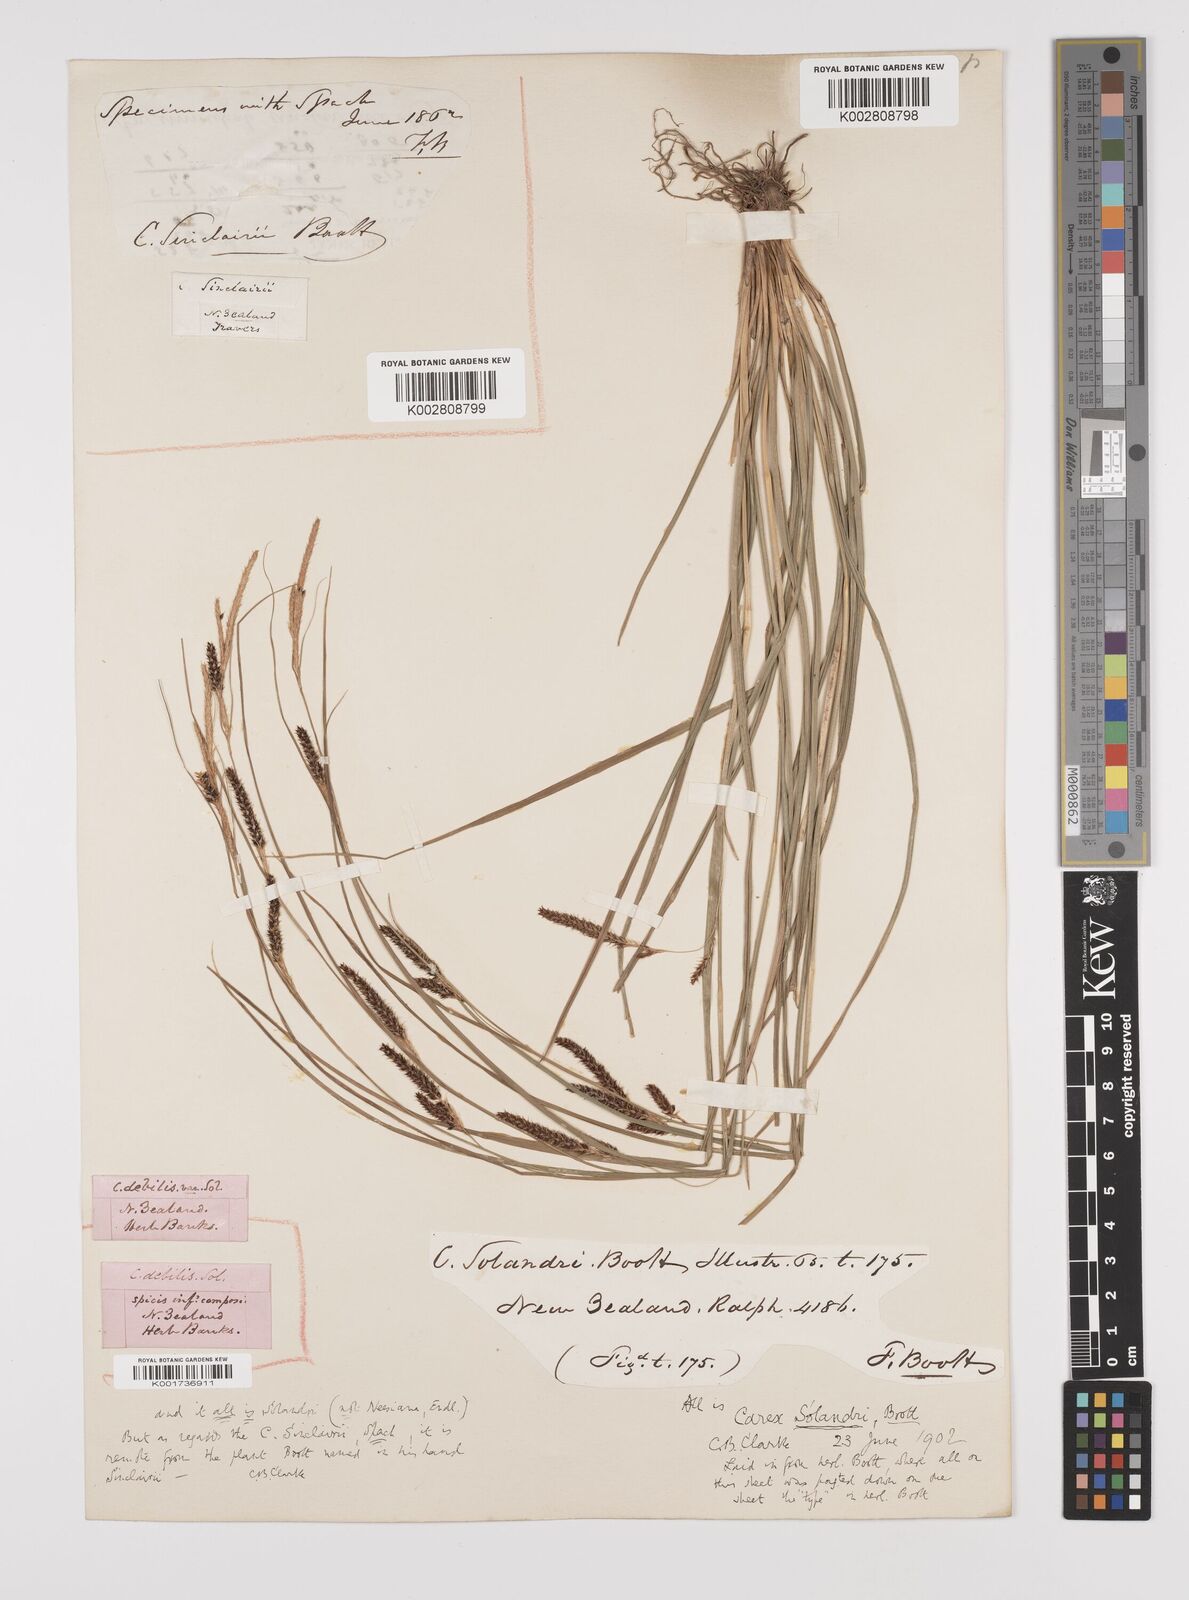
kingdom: Plantae
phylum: Tracheophyta
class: Liliopsida
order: Poales
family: Cyperaceae
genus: Carex
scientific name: Carex solandri
